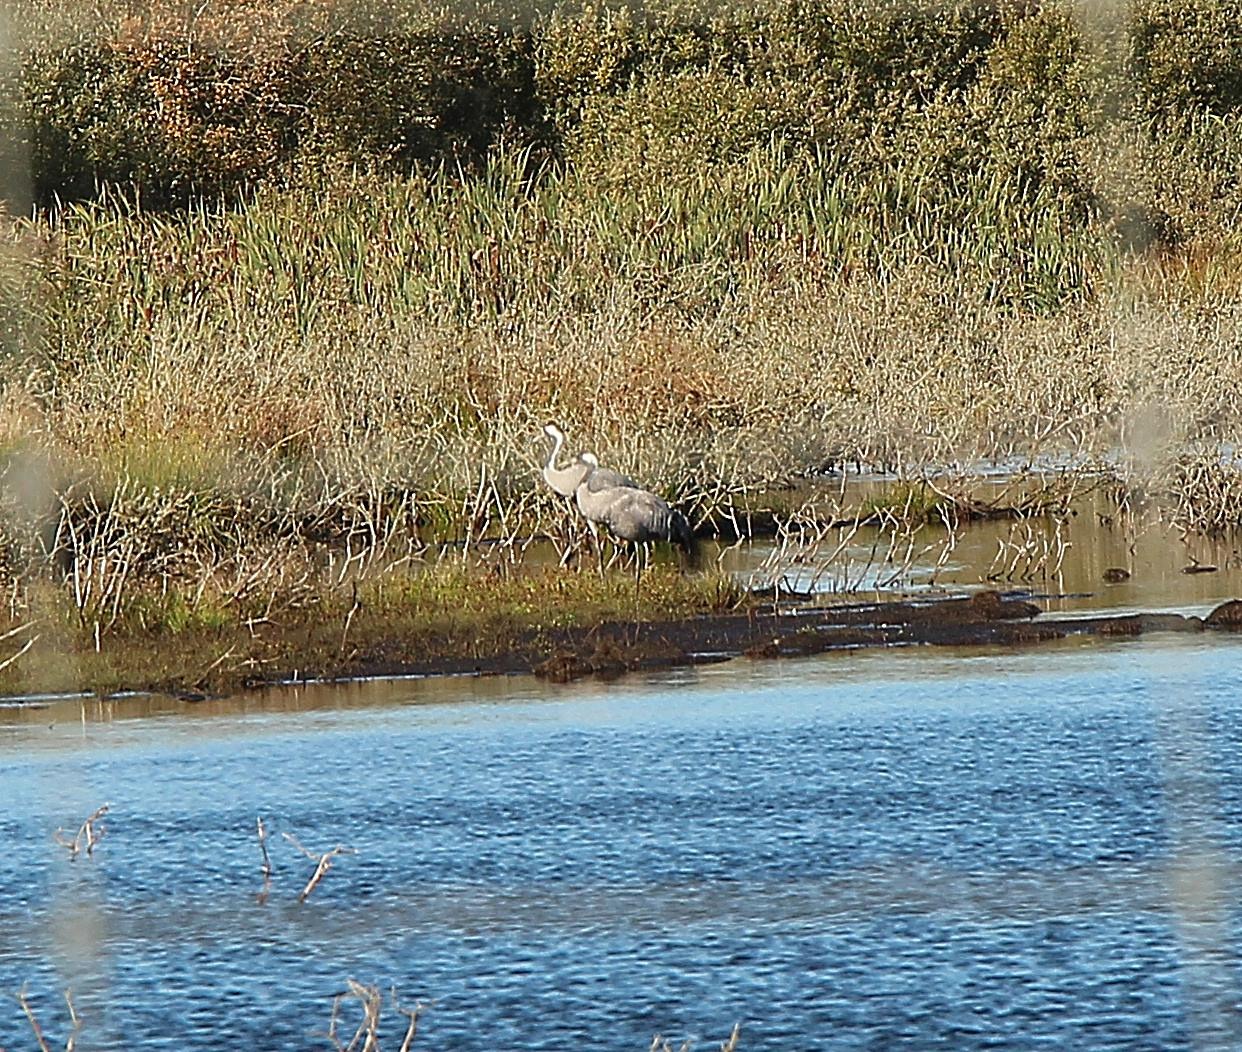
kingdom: Animalia
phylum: Chordata
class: Aves
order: Gruiformes
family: Gruidae
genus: Grus
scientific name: Grus grus
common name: Trane
